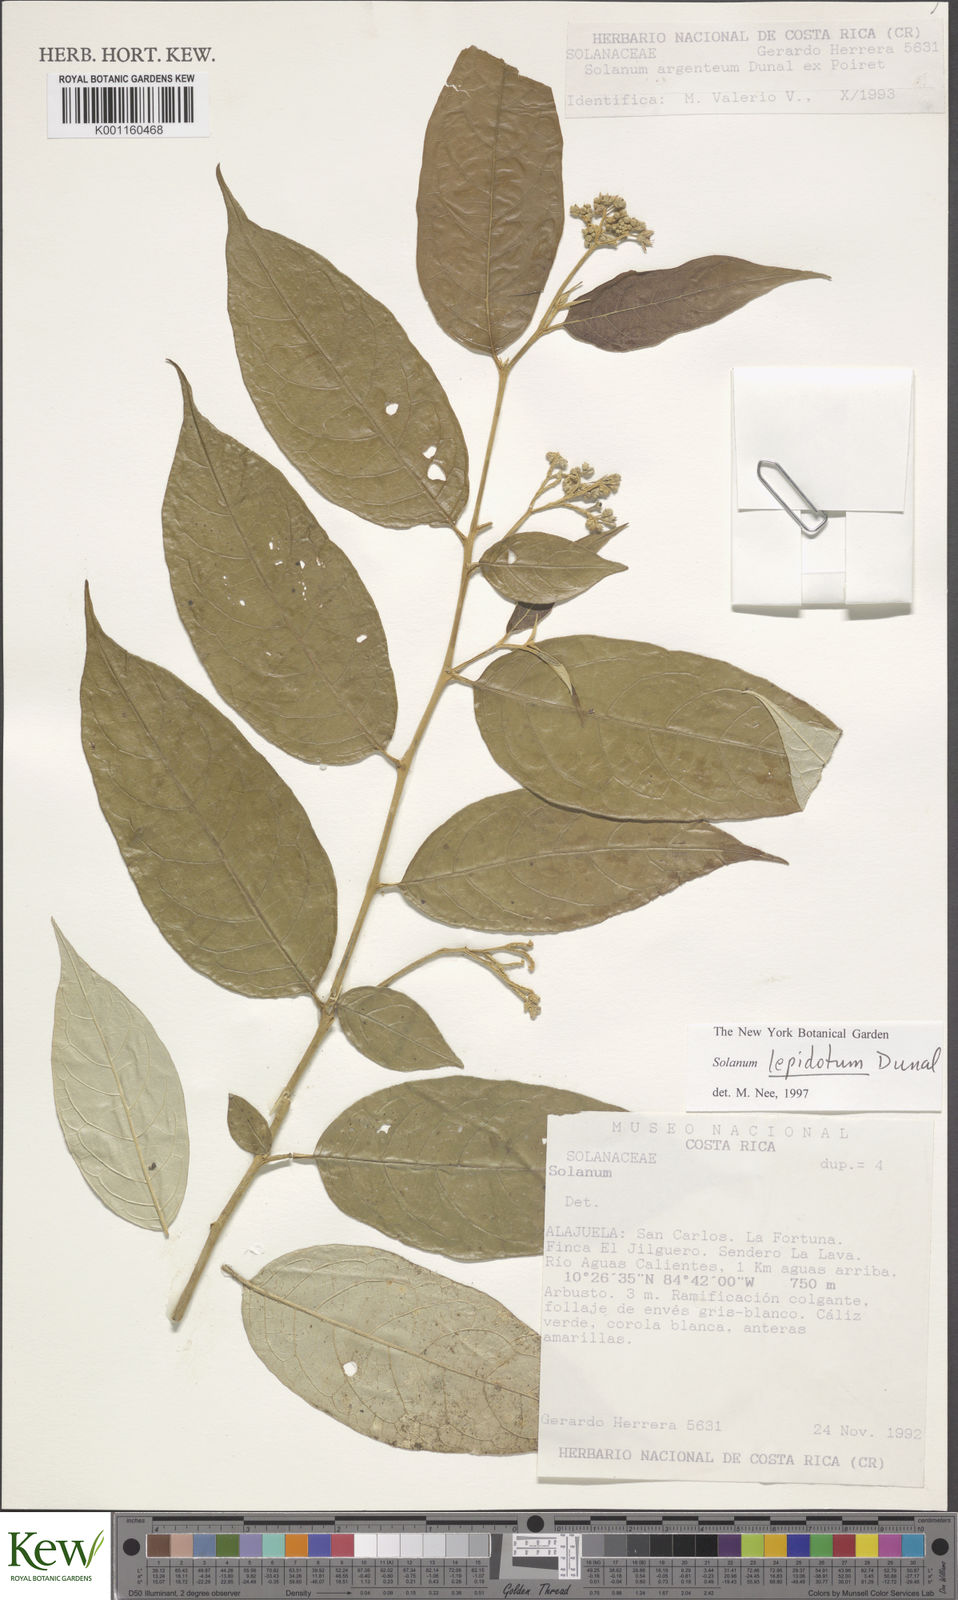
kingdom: Plantae
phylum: Tracheophyta
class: Magnoliopsida
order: Solanales
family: Solanaceae
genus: Solanum
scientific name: Solanum lepidotum
